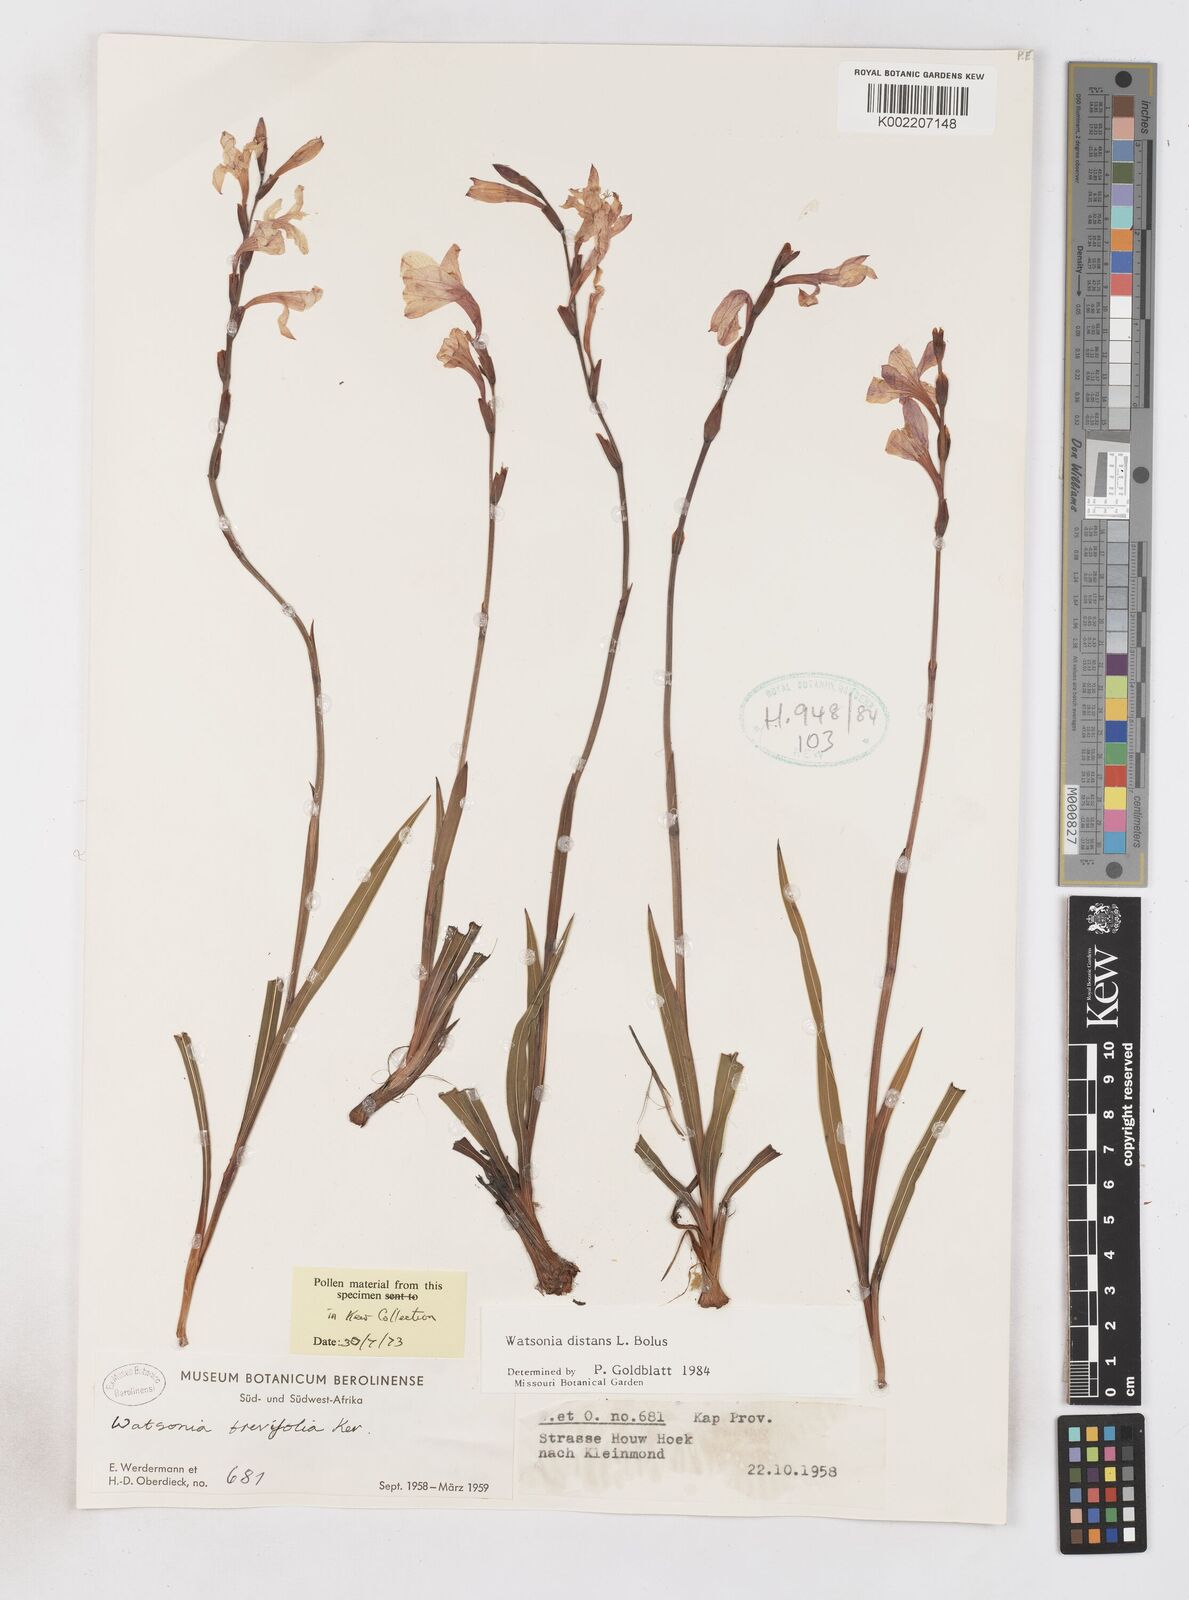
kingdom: Plantae
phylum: Tracheophyta
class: Liliopsida
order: Asparagales
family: Iridaceae
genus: Watsonia
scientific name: Watsonia distans
